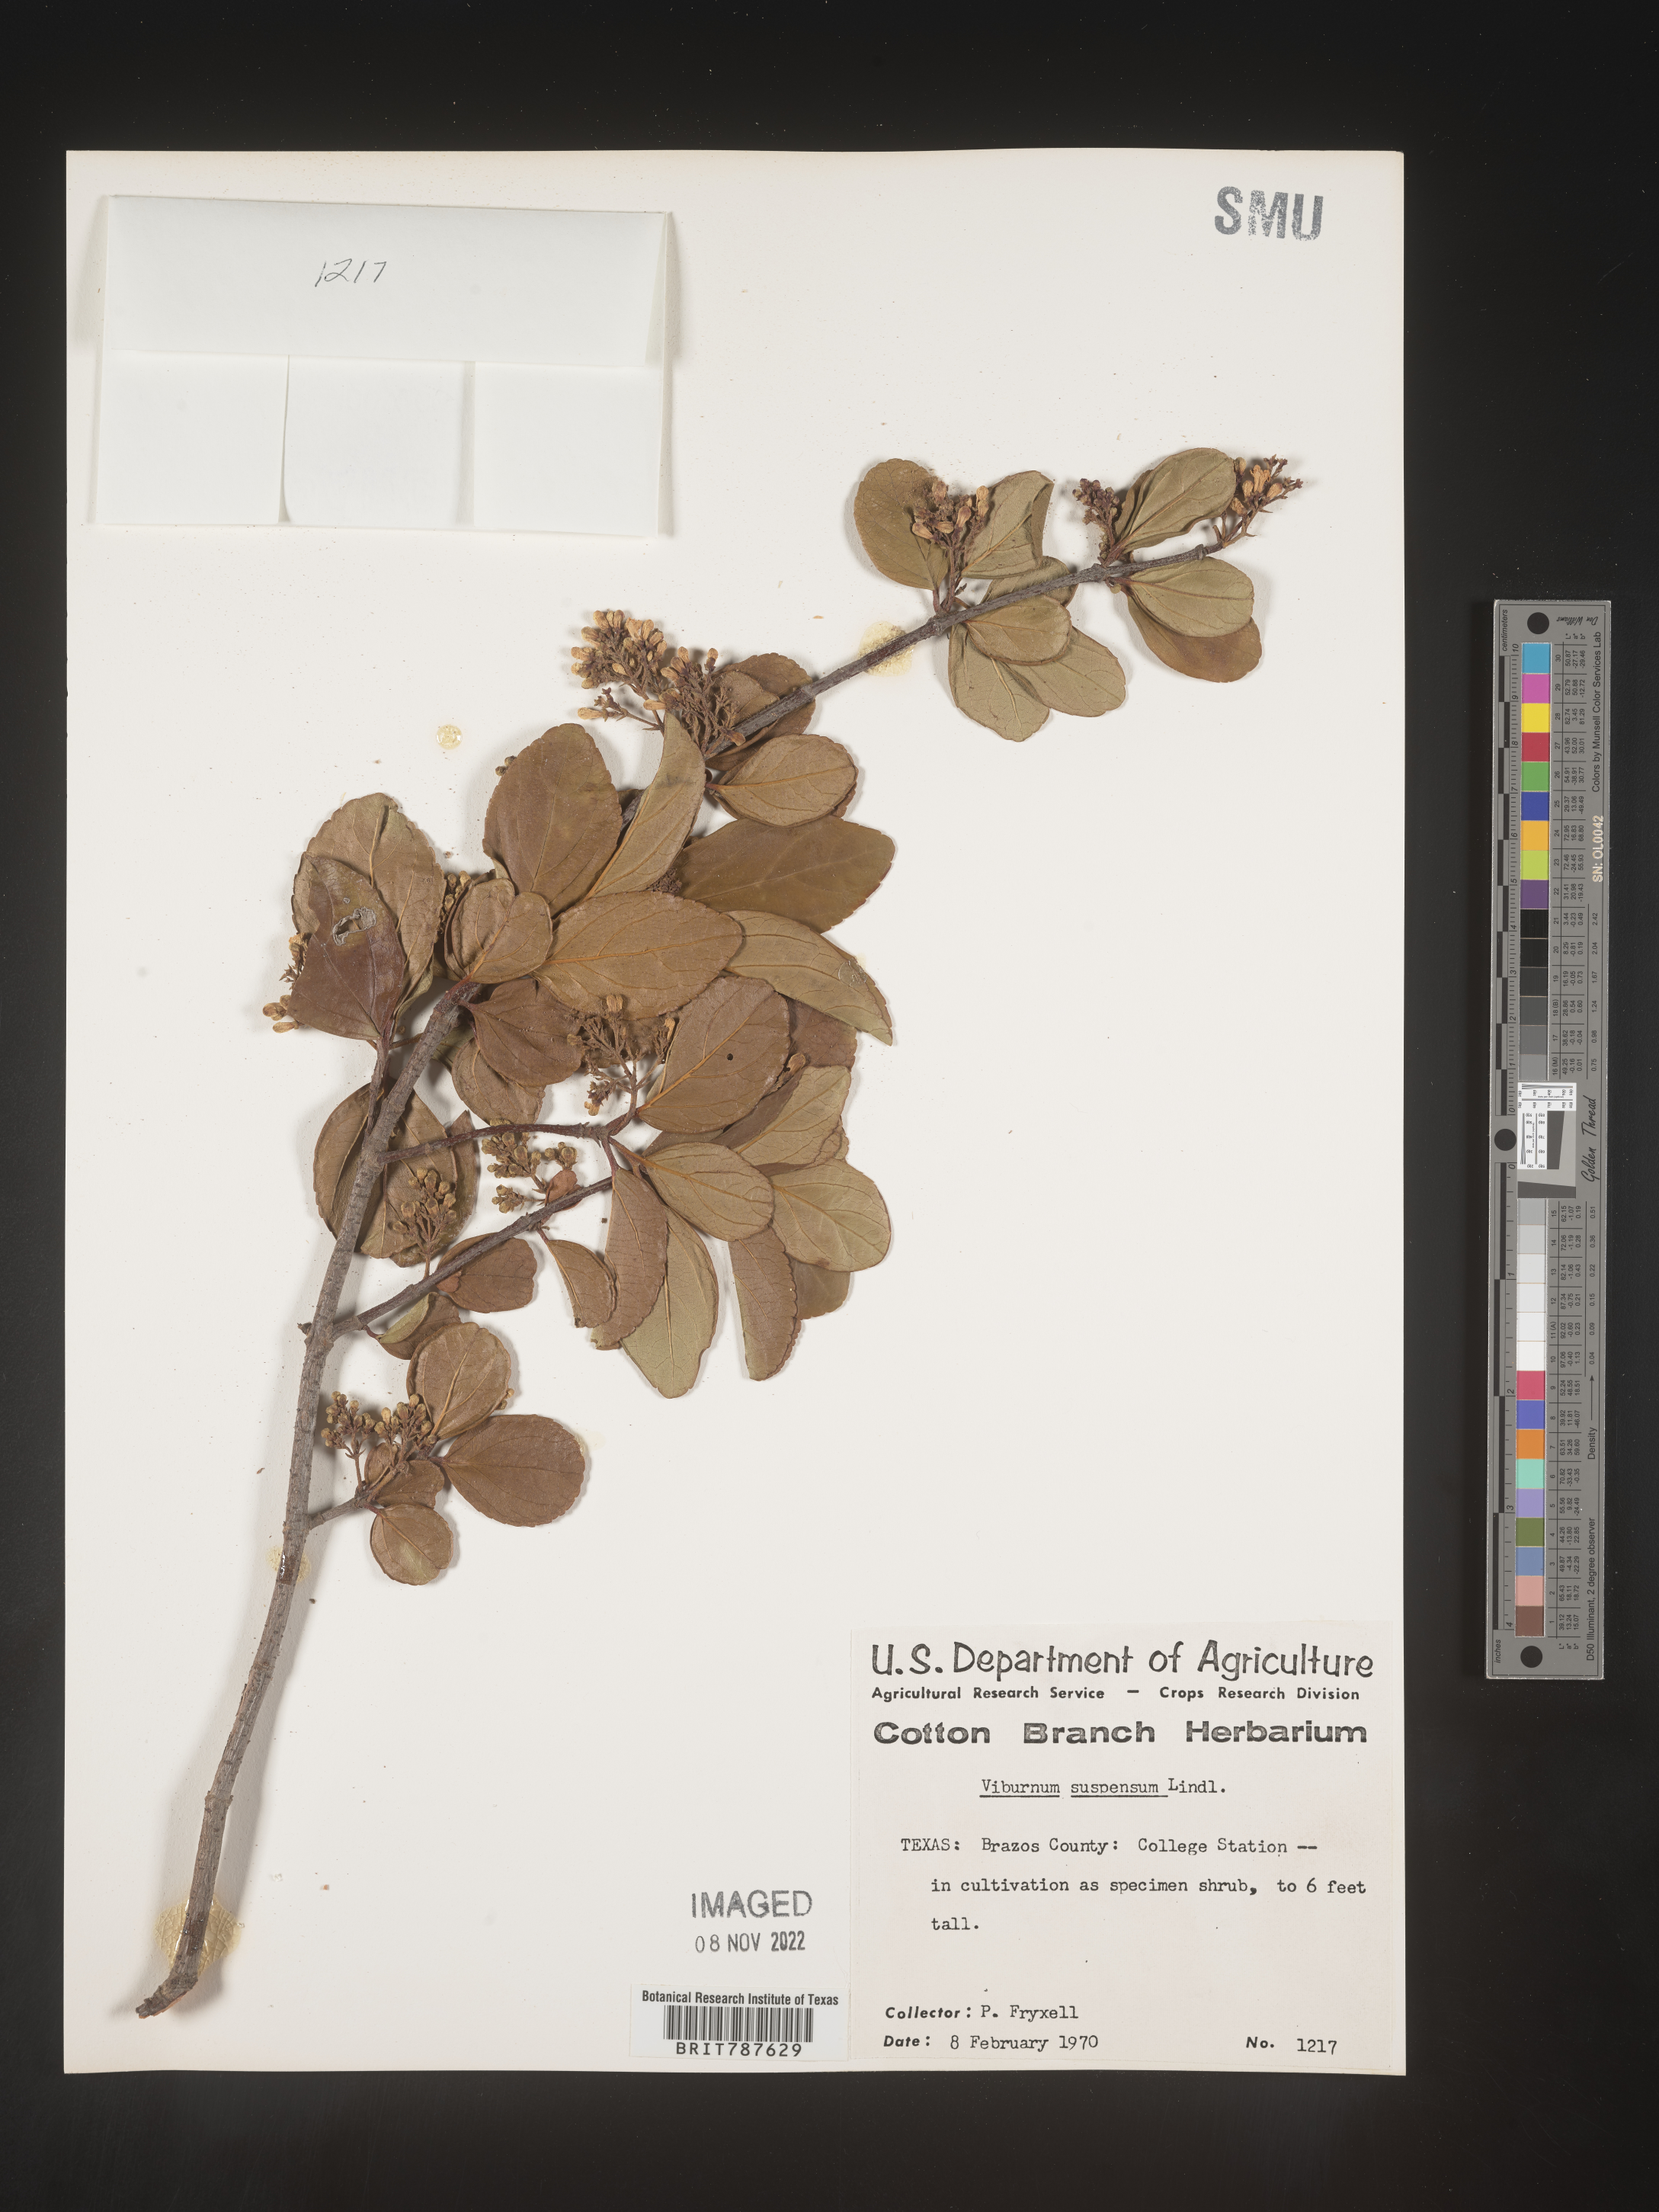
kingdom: Plantae
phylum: Tracheophyta
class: Magnoliopsida
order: Dipsacales
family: Viburnaceae
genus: Viburnum
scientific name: Viburnum
